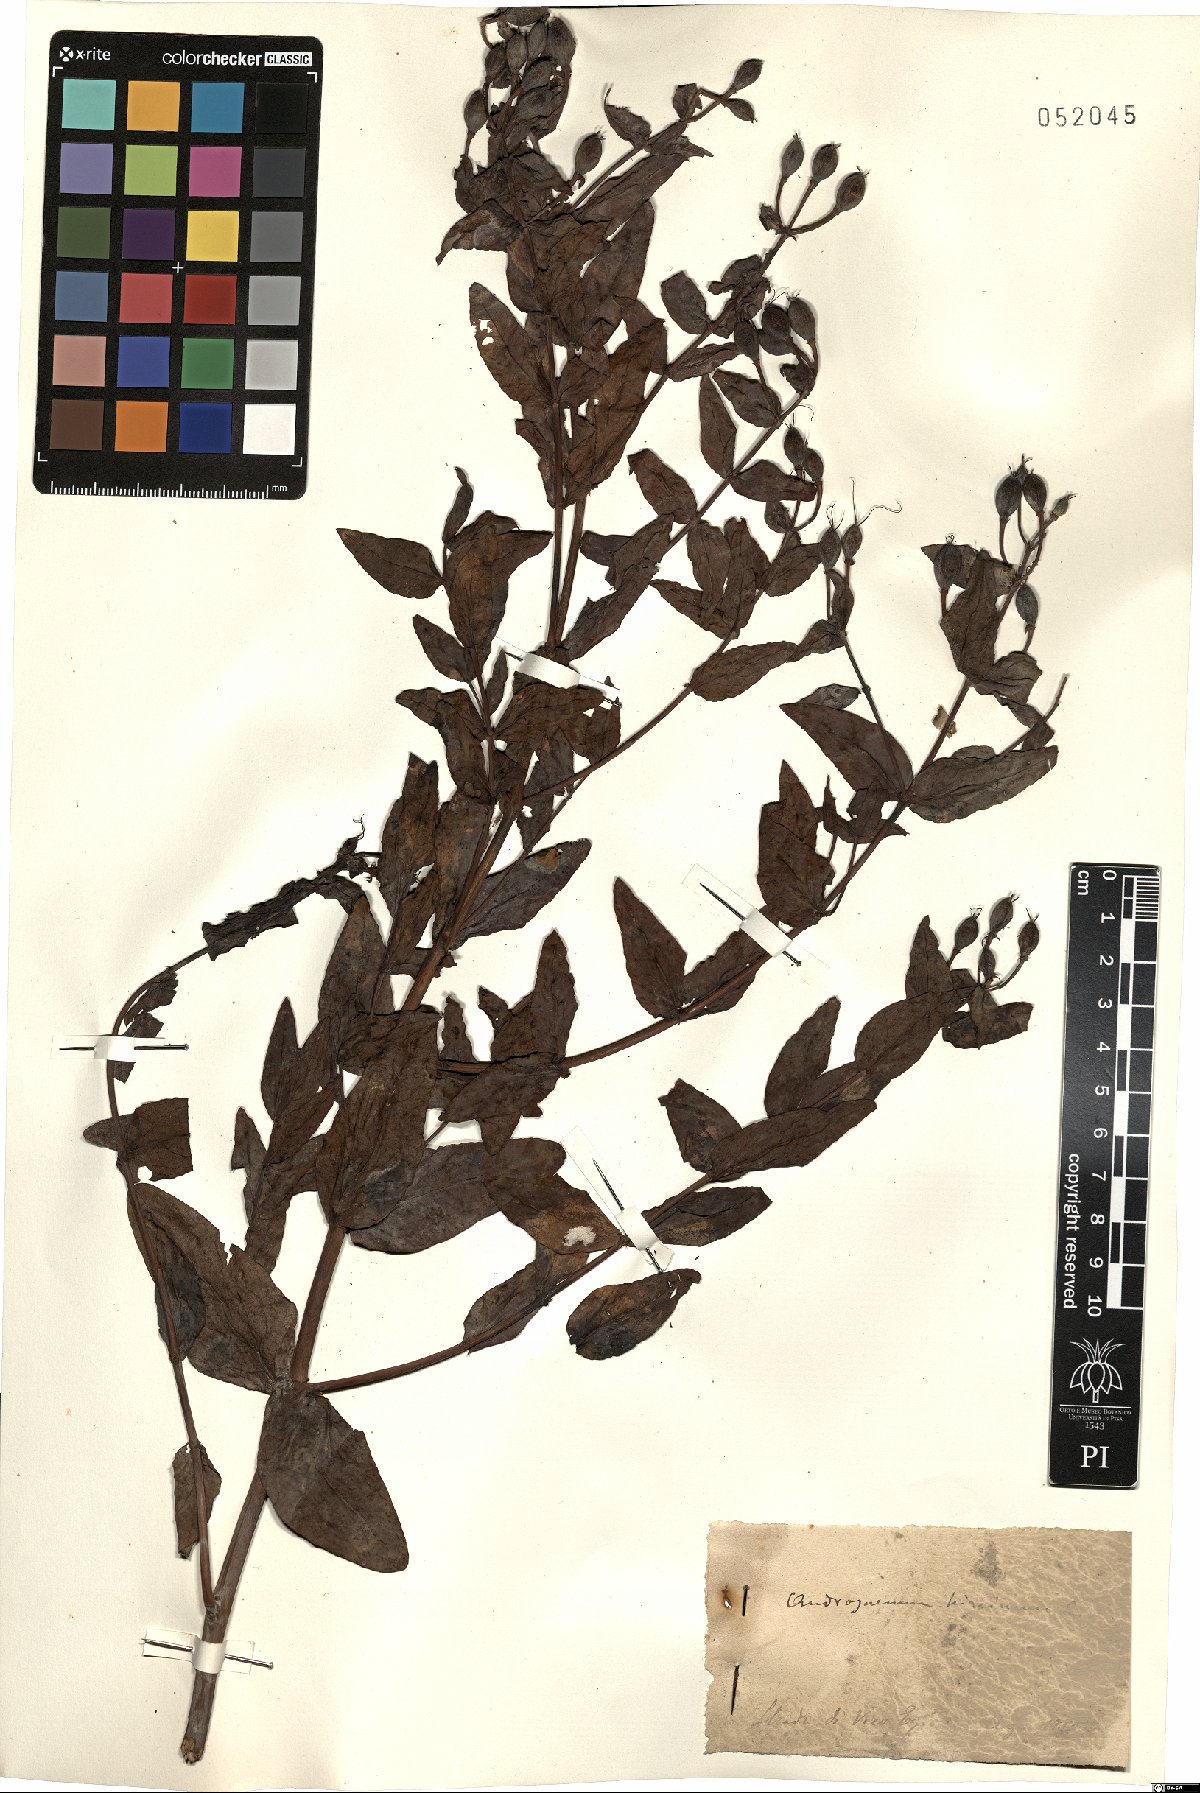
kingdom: Plantae
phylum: Tracheophyta
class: Magnoliopsida
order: Malpighiales
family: Hypericaceae
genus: Hypericum
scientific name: Hypericum hircinum
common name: Stinking tutsan
